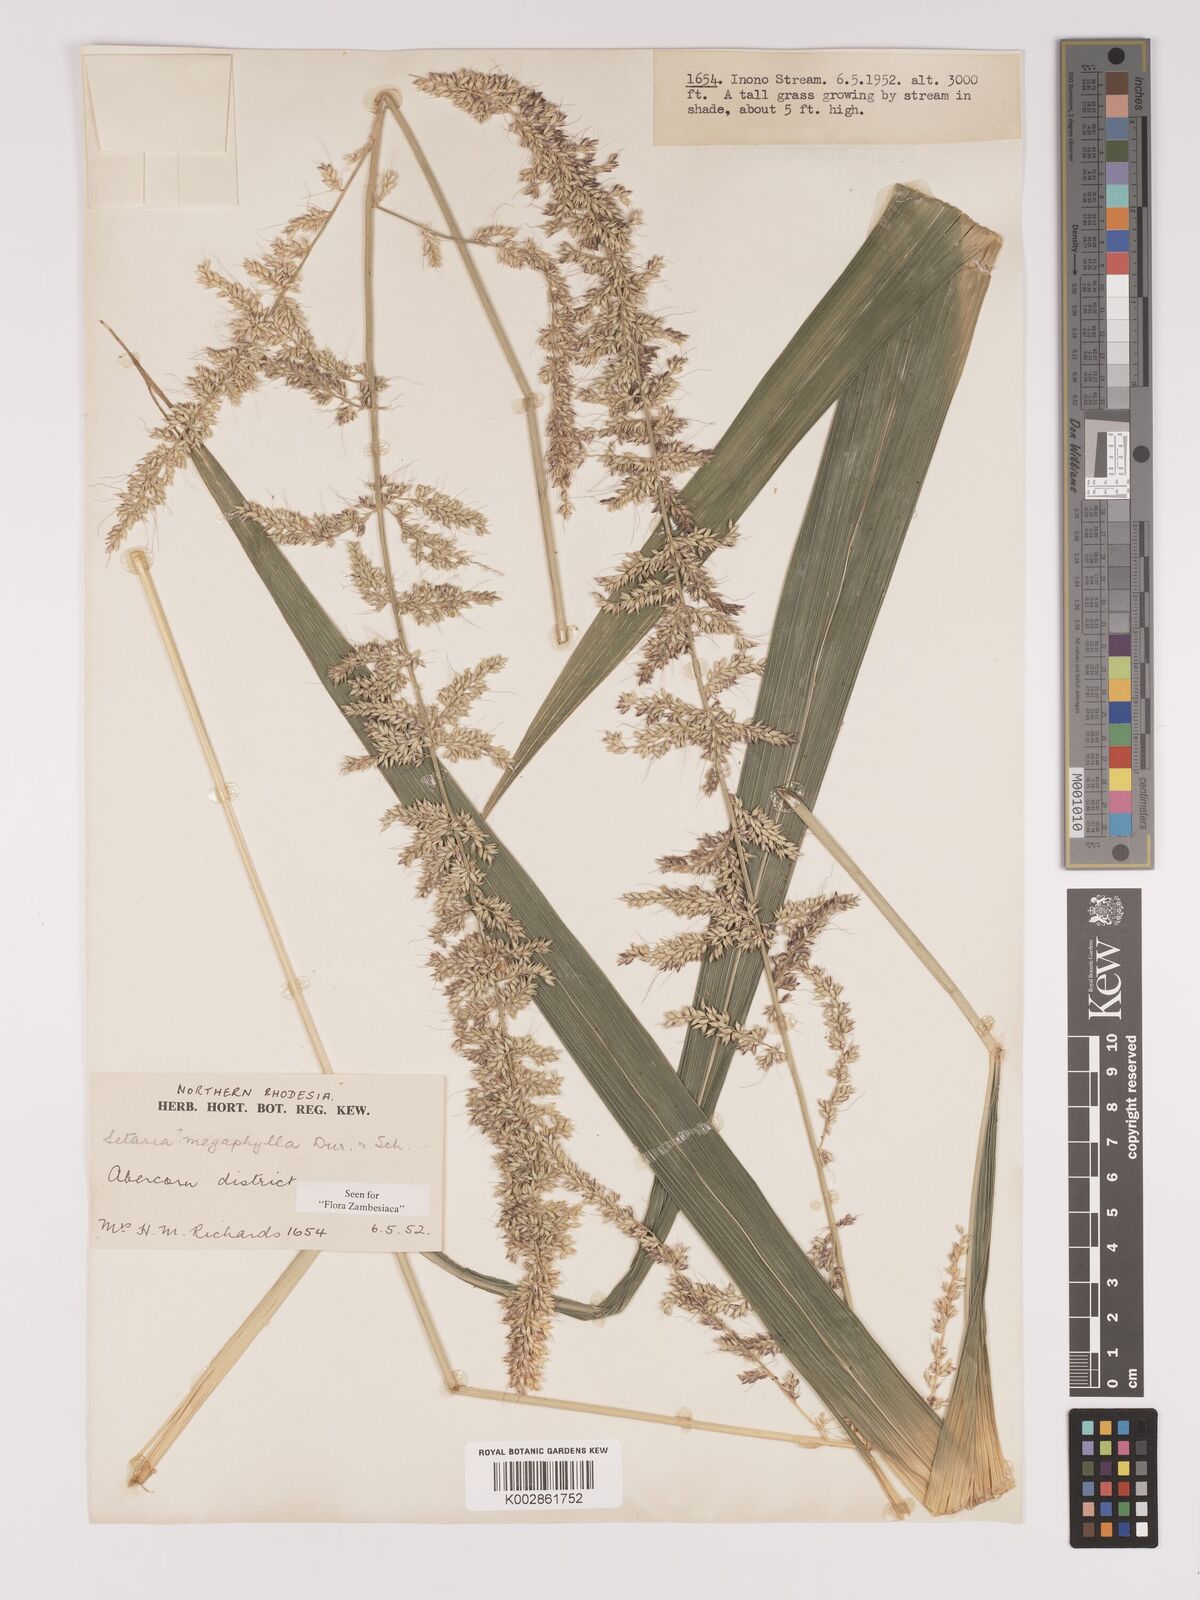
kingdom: Plantae
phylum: Tracheophyta
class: Liliopsida
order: Poales
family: Poaceae
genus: Setaria
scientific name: Setaria megaphylla
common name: Bigleaf bristlegrass
